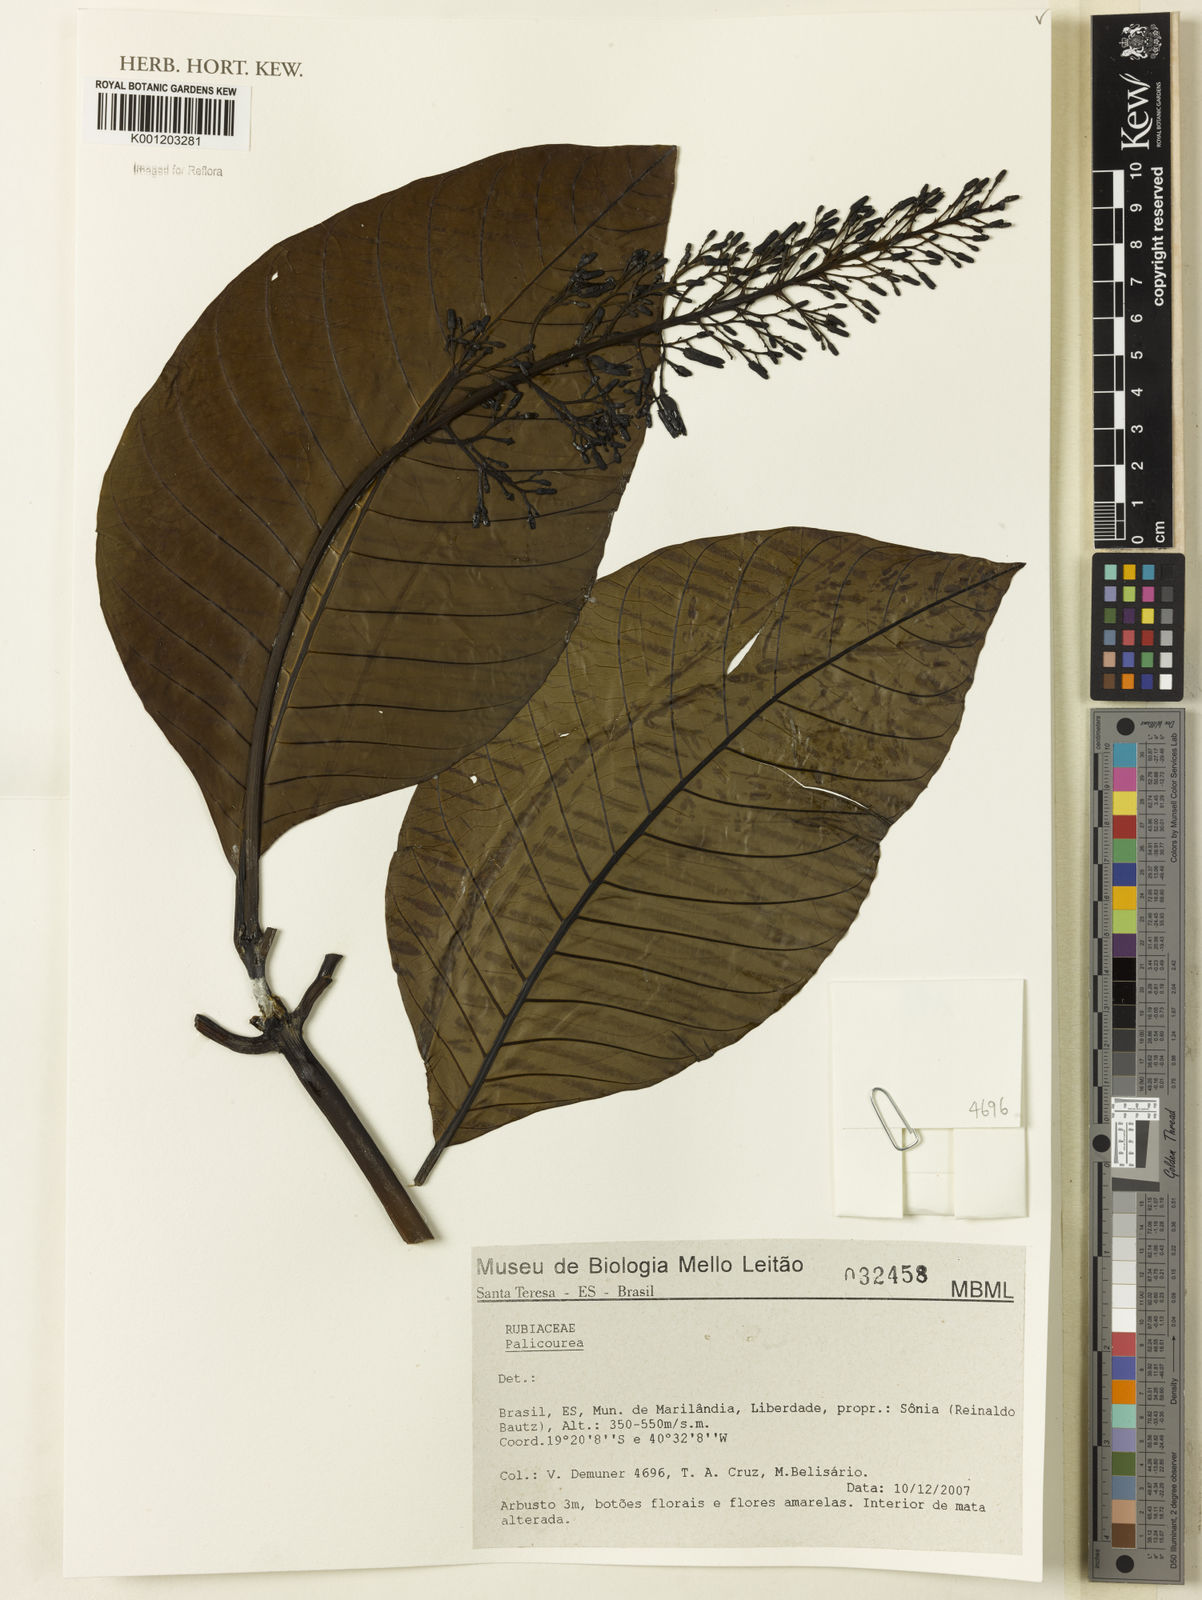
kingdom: Plantae
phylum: Tracheophyta
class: Magnoliopsida
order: Gentianales
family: Rubiaceae
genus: Palicourea
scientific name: Palicourea
